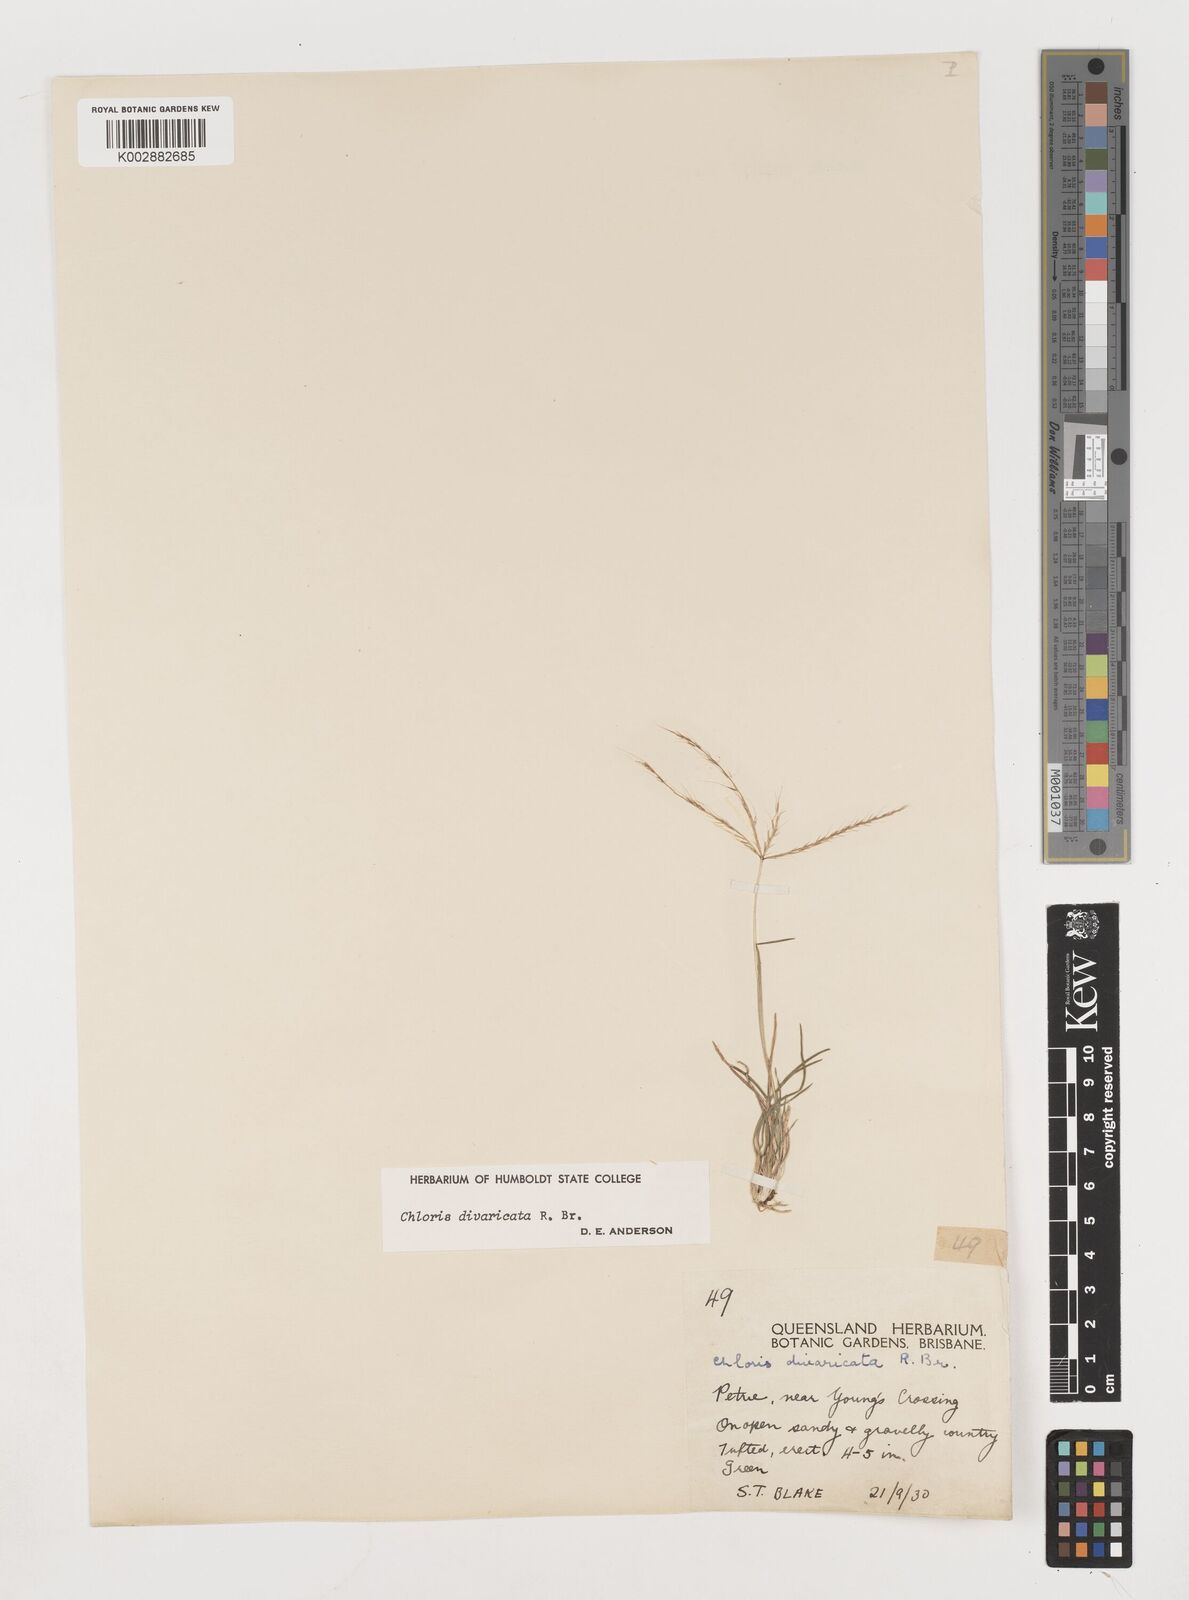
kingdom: Plantae
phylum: Tracheophyta
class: Liliopsida
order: Poales
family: Poaceae
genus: Chloris
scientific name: Chloris divaricata
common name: Spreading windmill grass
